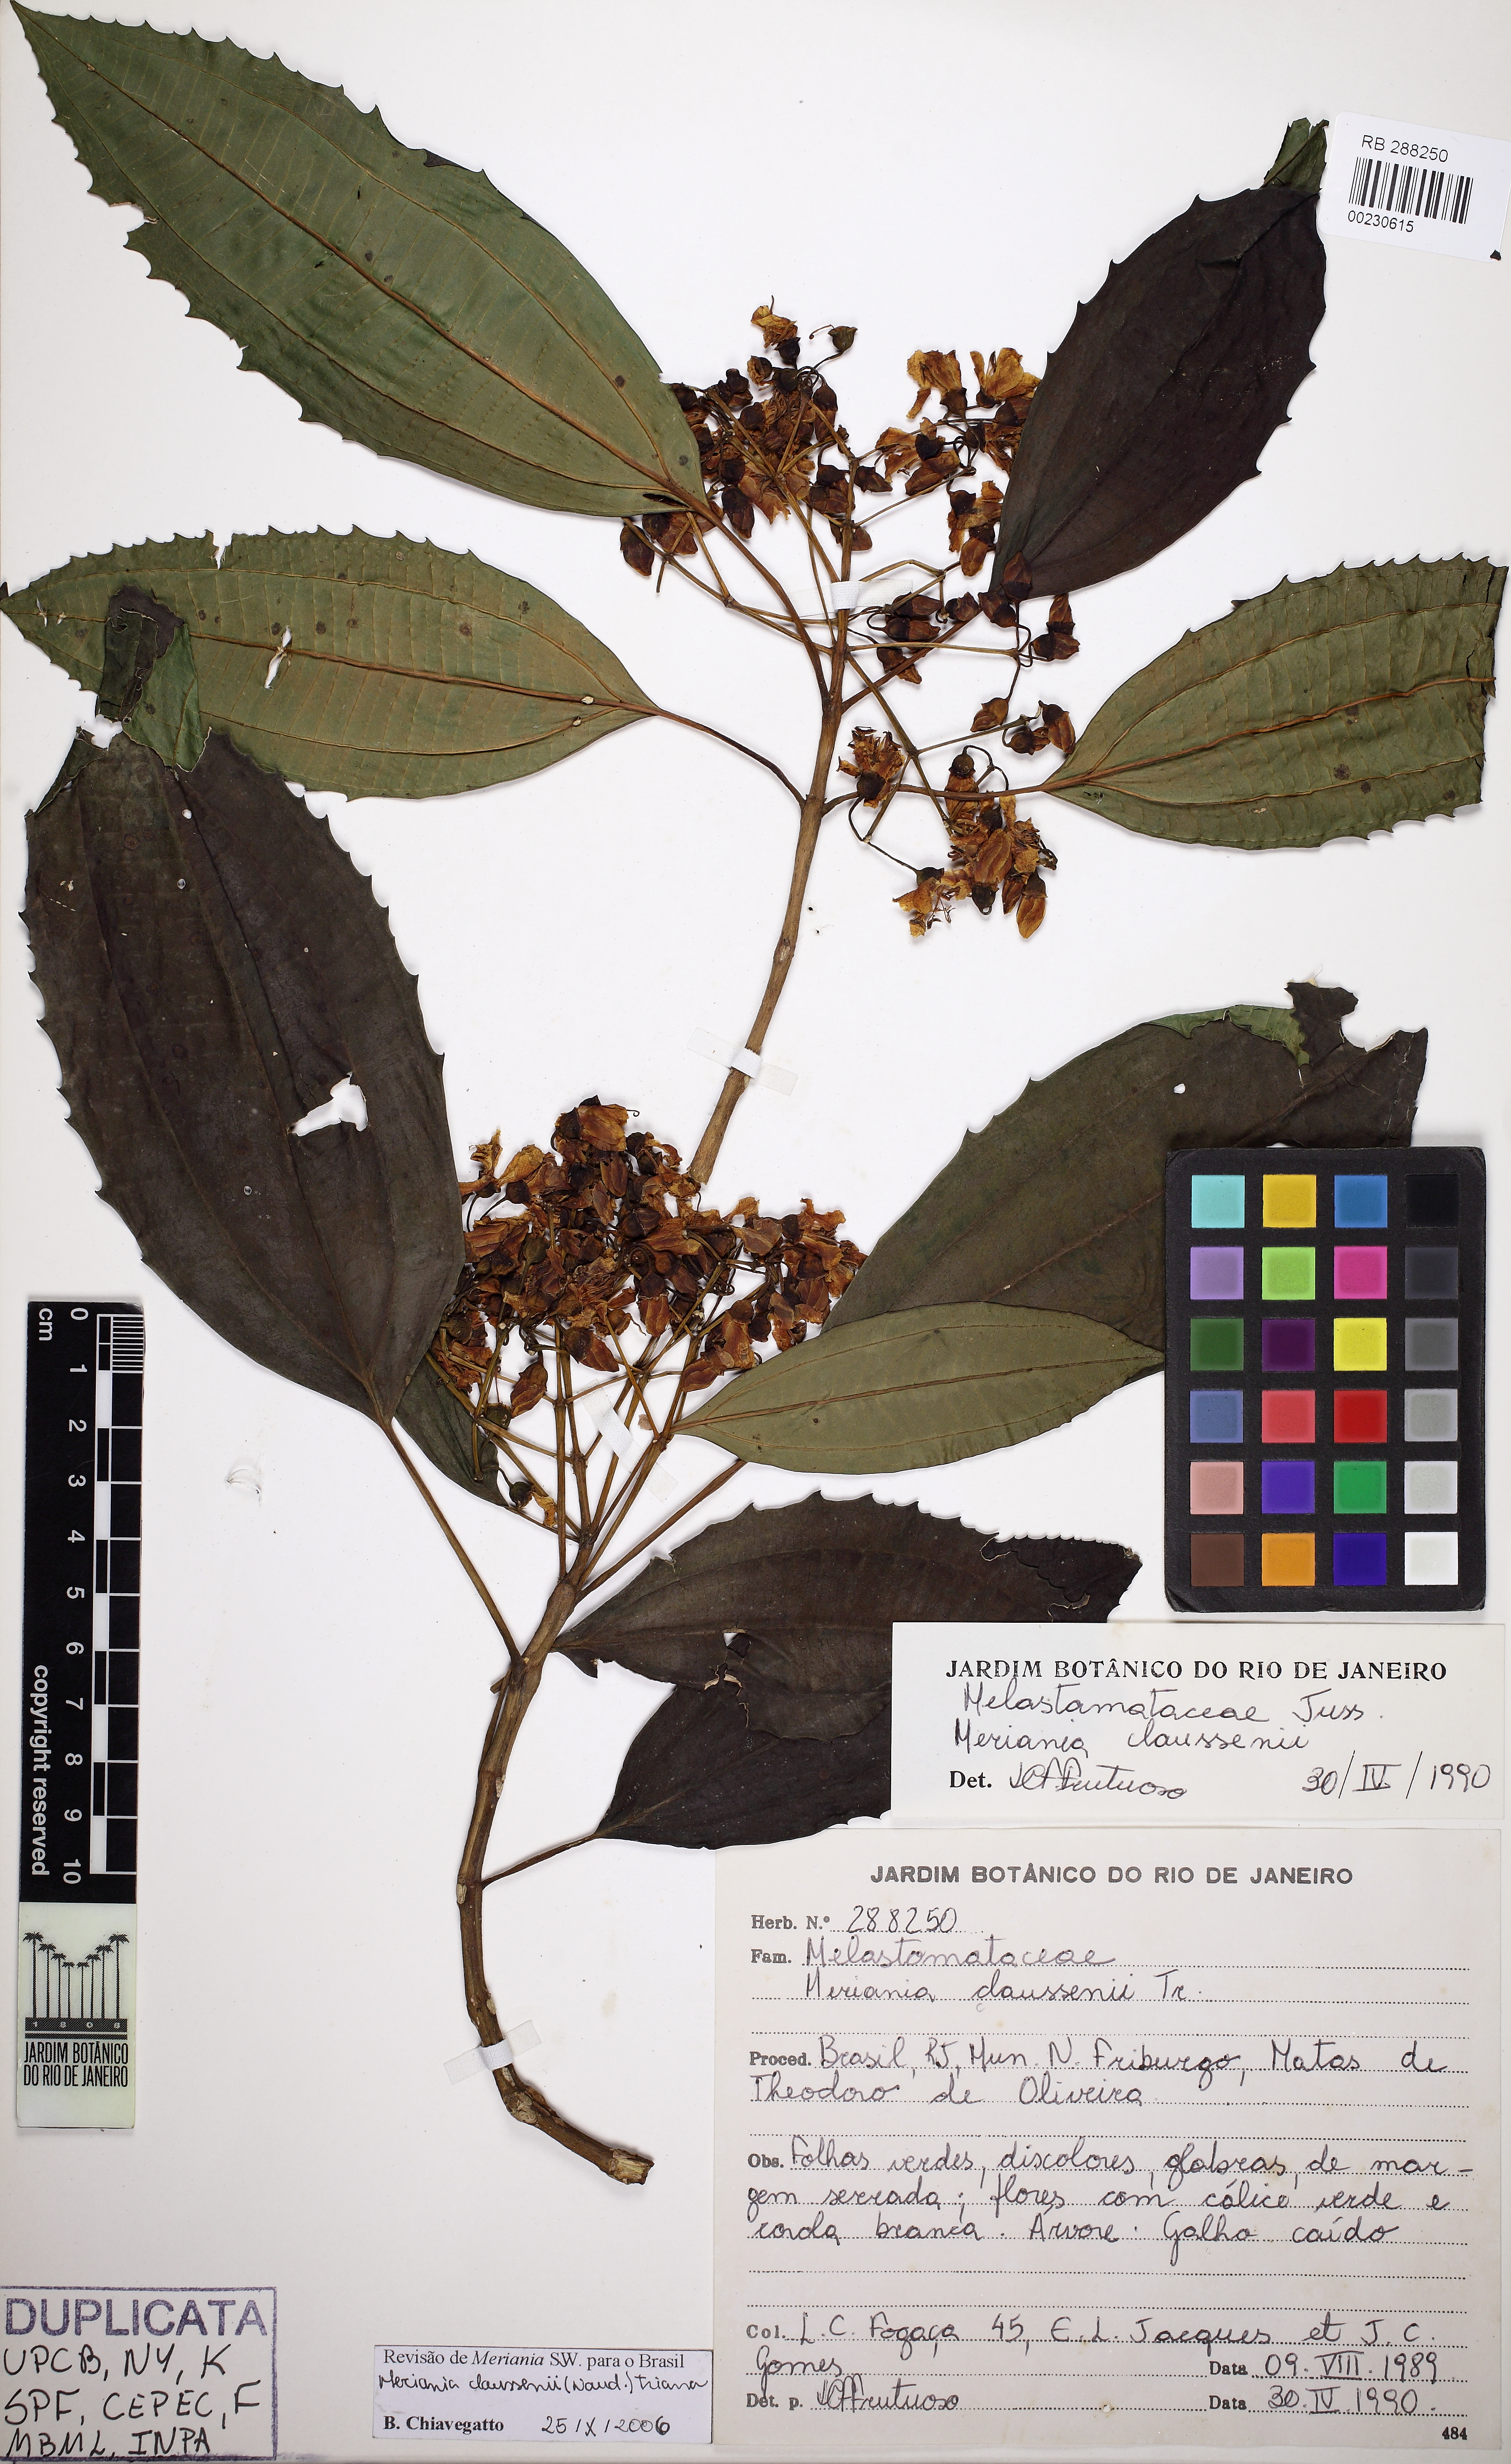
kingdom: Plantae
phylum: Tracheophyta
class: Magnoliopsida
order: Myrtales
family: Melastomataceae
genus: Meriania
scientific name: Meriania claussenii
